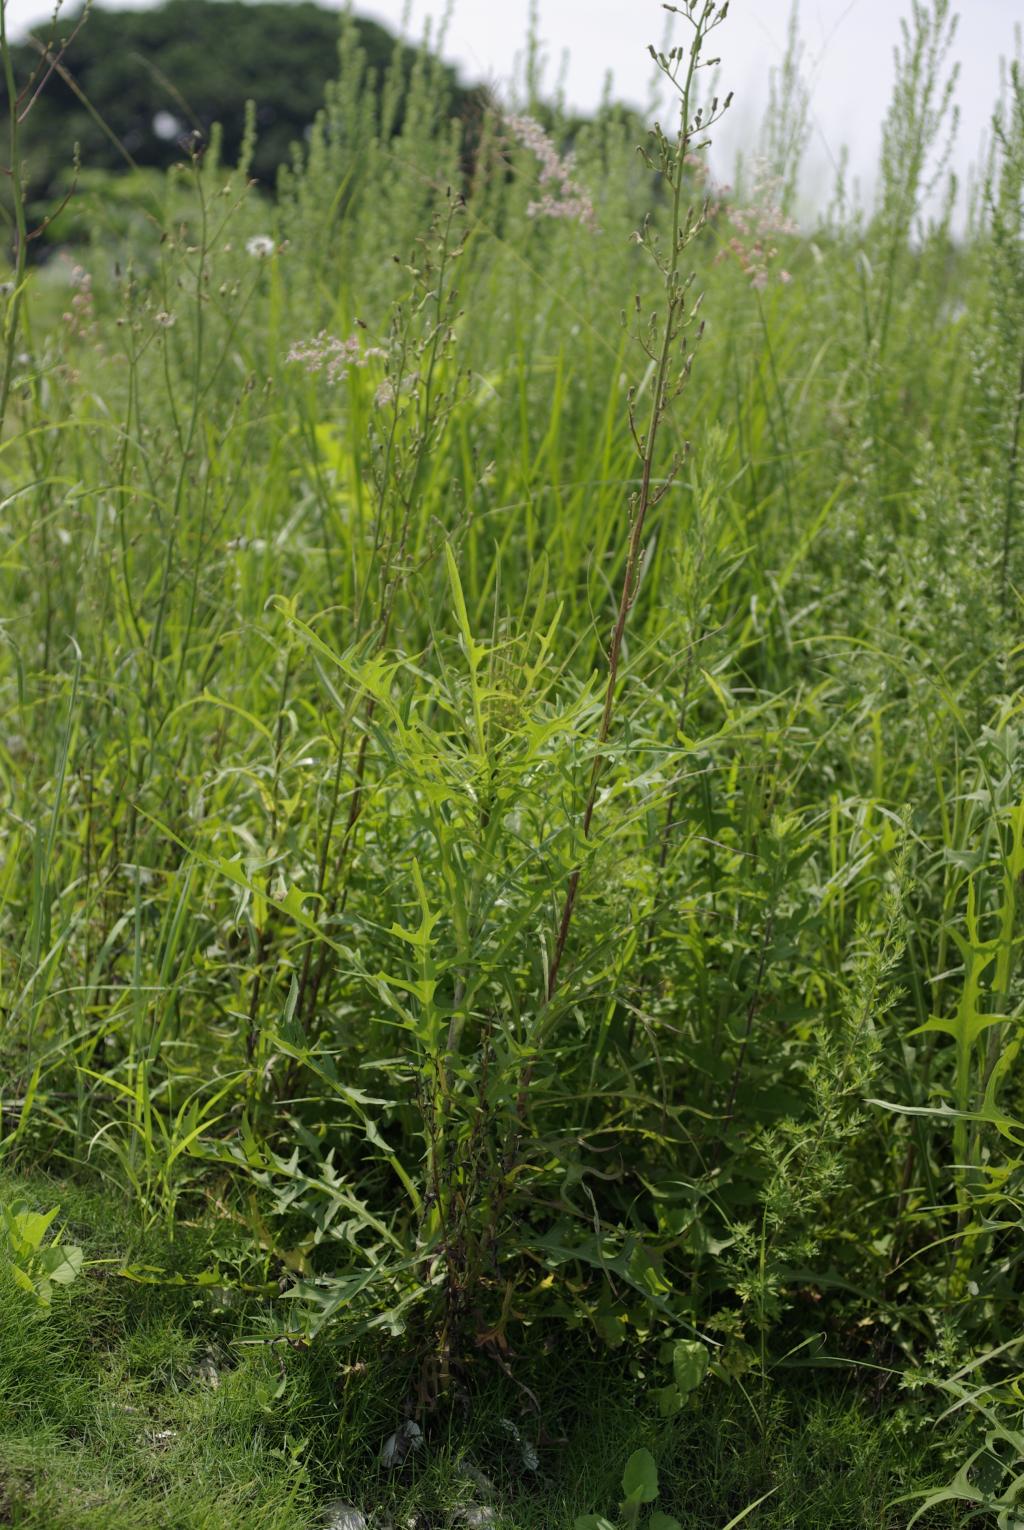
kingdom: Plantae
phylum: Tracheophyta
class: Magnoliopsida
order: Asterales
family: Asteraceae
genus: Lactuca
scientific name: Lactuca indica
